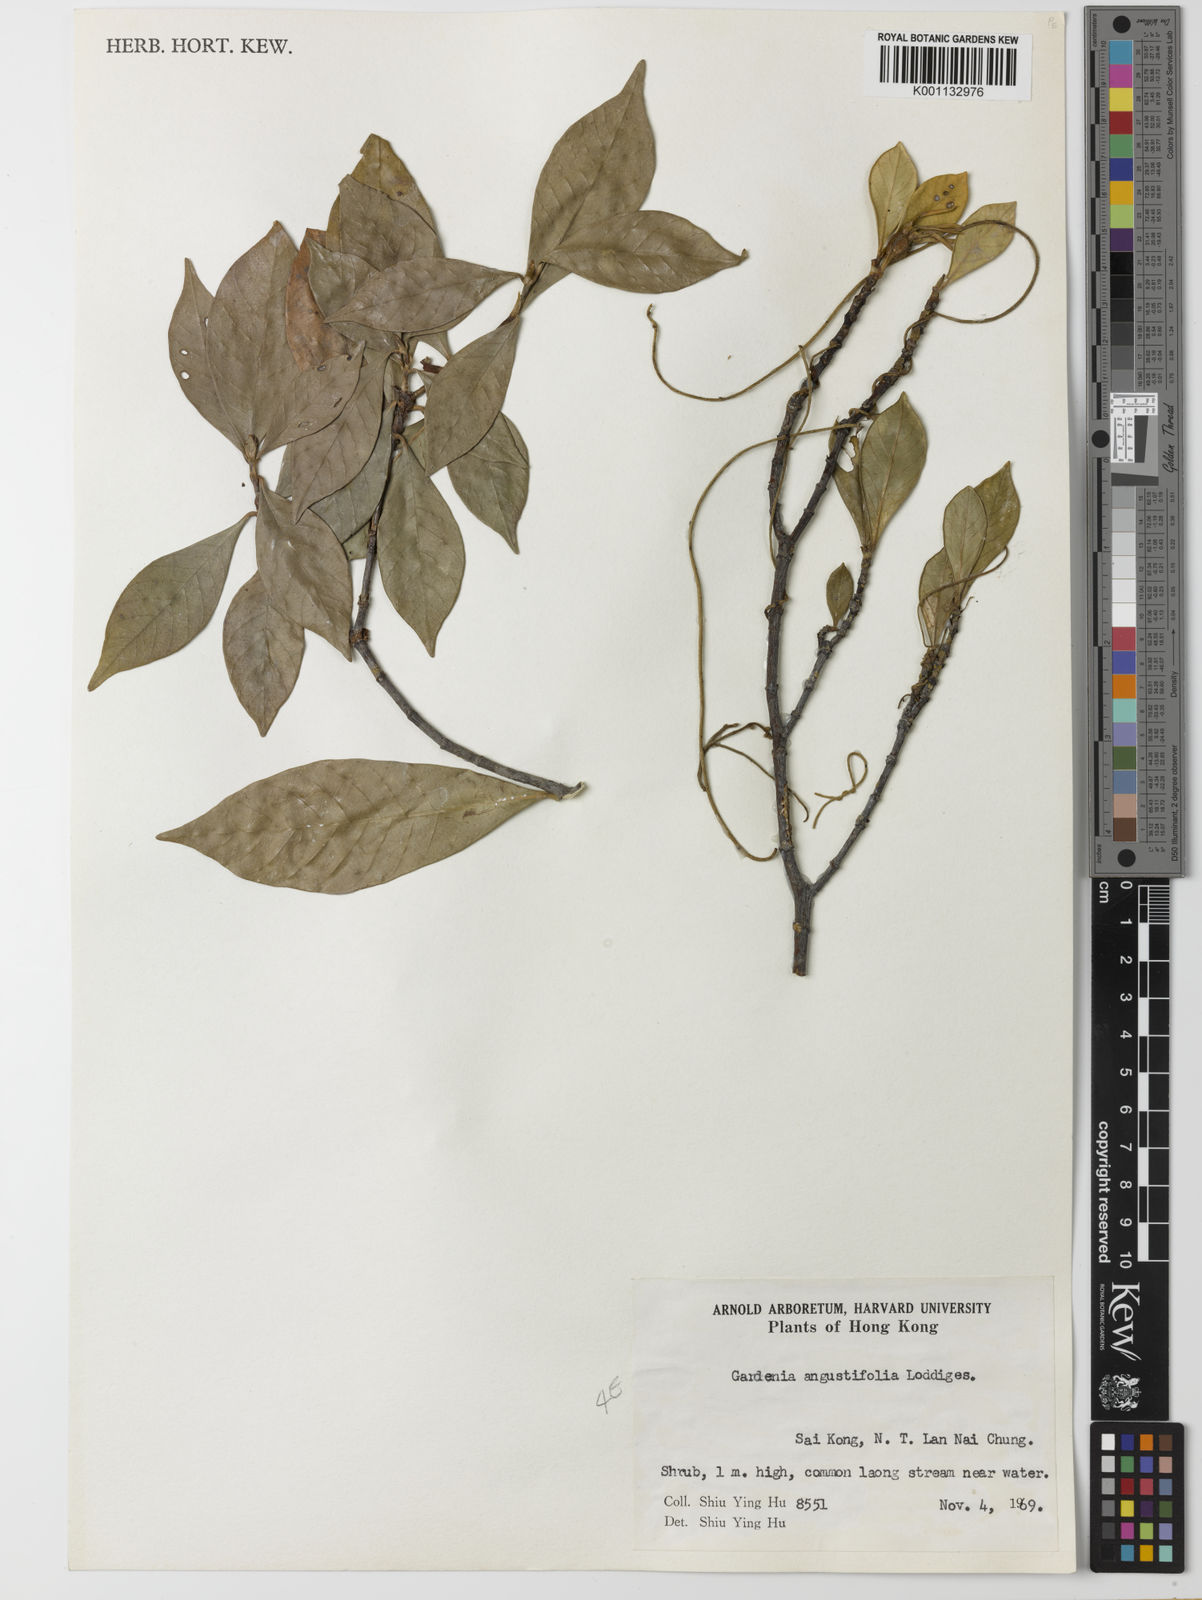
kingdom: Plantae
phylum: Tracheophyta
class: Magnoliopsida
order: Gentianales
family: Rubiaceae
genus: Gardenia
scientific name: Gardenia jasminoides
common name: Cape-jasmine
